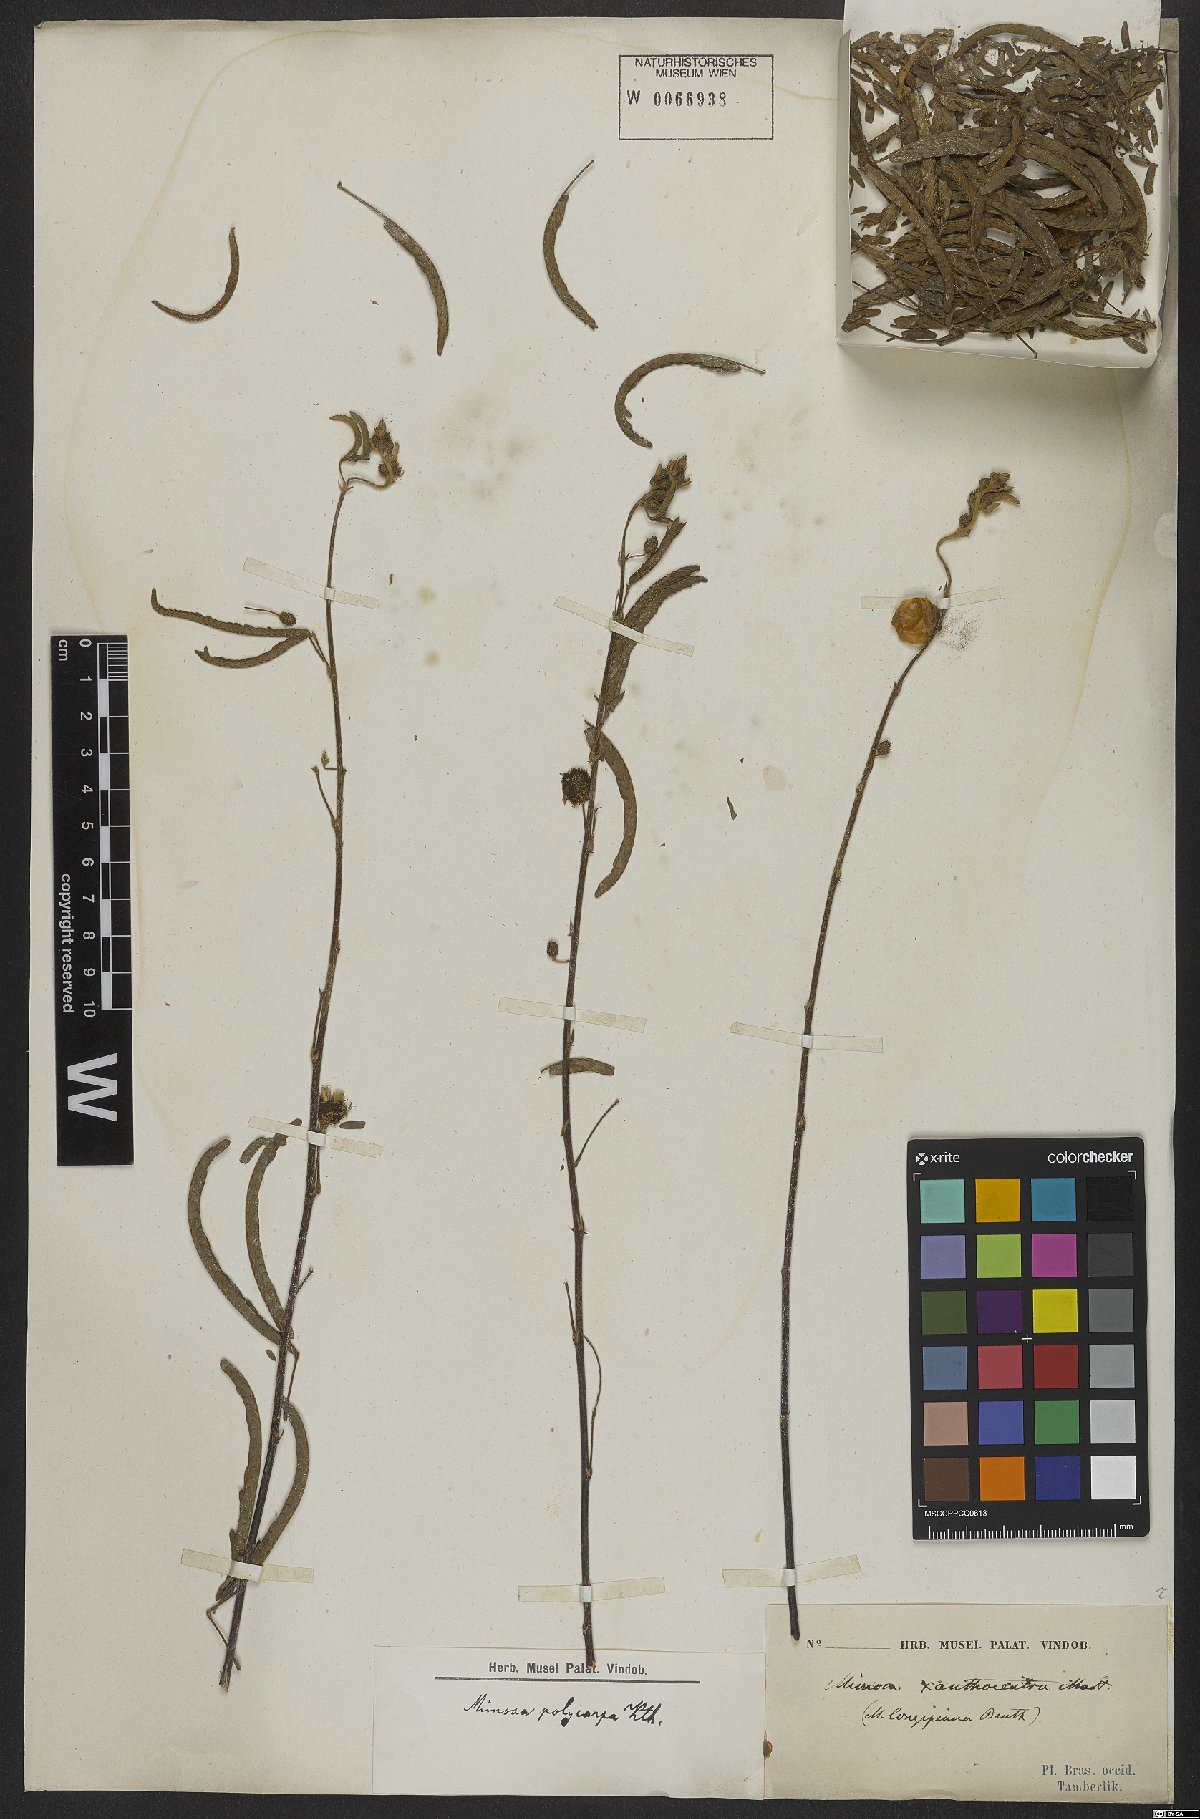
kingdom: Plantae
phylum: Tracheophyta
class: Magnoliopsida
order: Fabales
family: Fabaceae
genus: Mimosa
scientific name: Mimosa polycarpa
